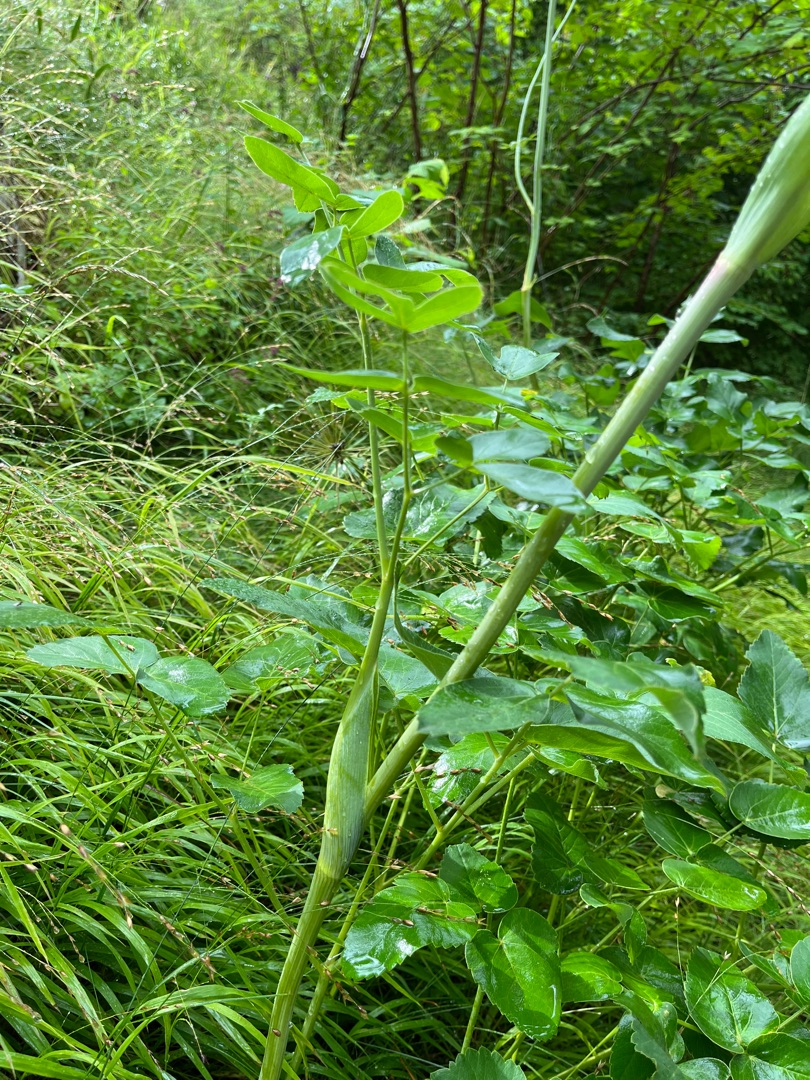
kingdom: Plantae
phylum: Tracheophyta
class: Magnoliopsida
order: Apiales
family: Apiaceae
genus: Laserpitium
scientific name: Laserpitium latifolium
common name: Foldfrø
